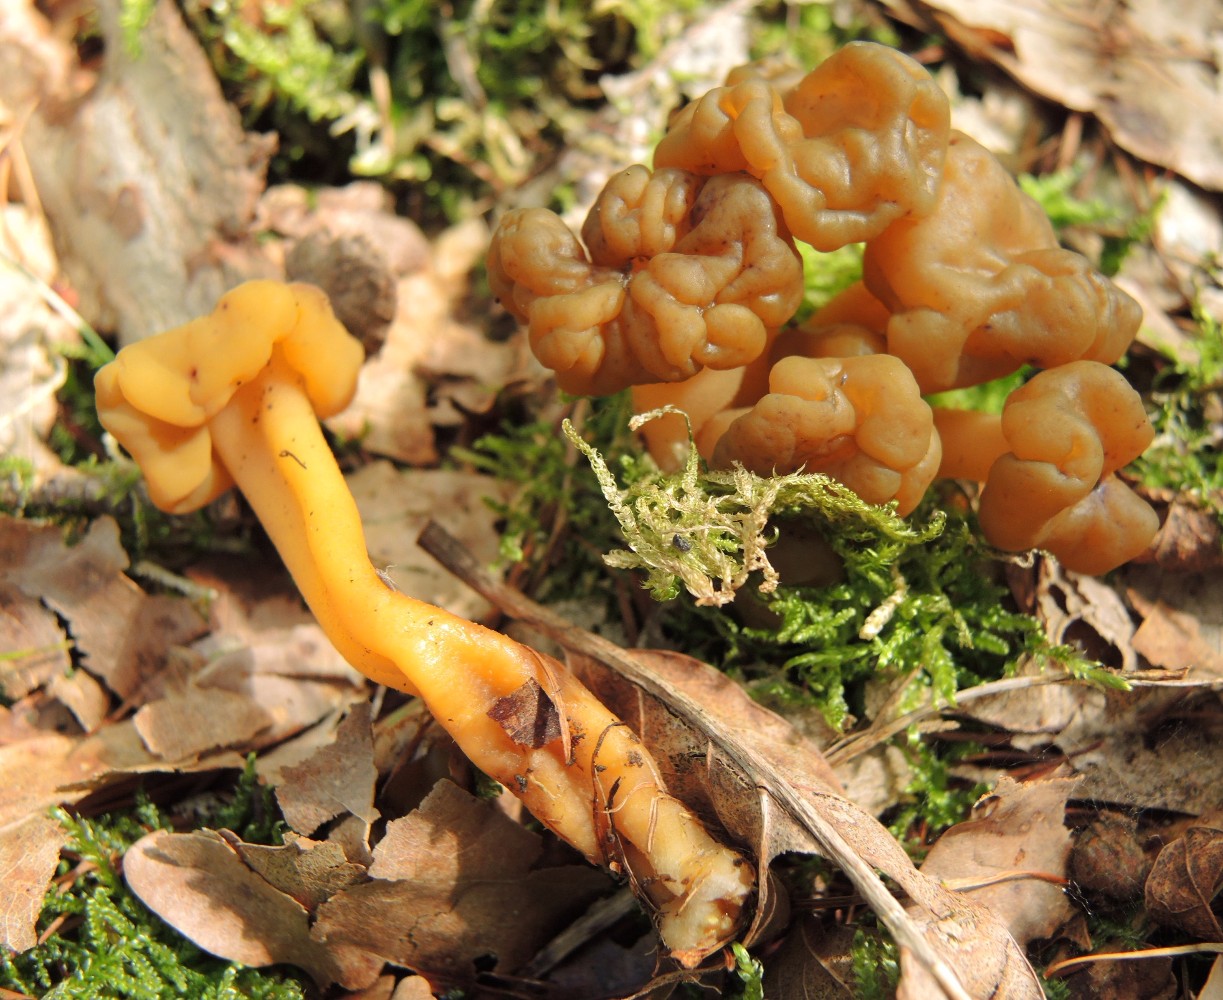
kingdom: Fungi
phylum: Ascomycota
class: Leotiomycetes
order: Leotiales
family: Leotiaceae
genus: Leotia
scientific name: Leotia lubrica
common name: ravsvamp
